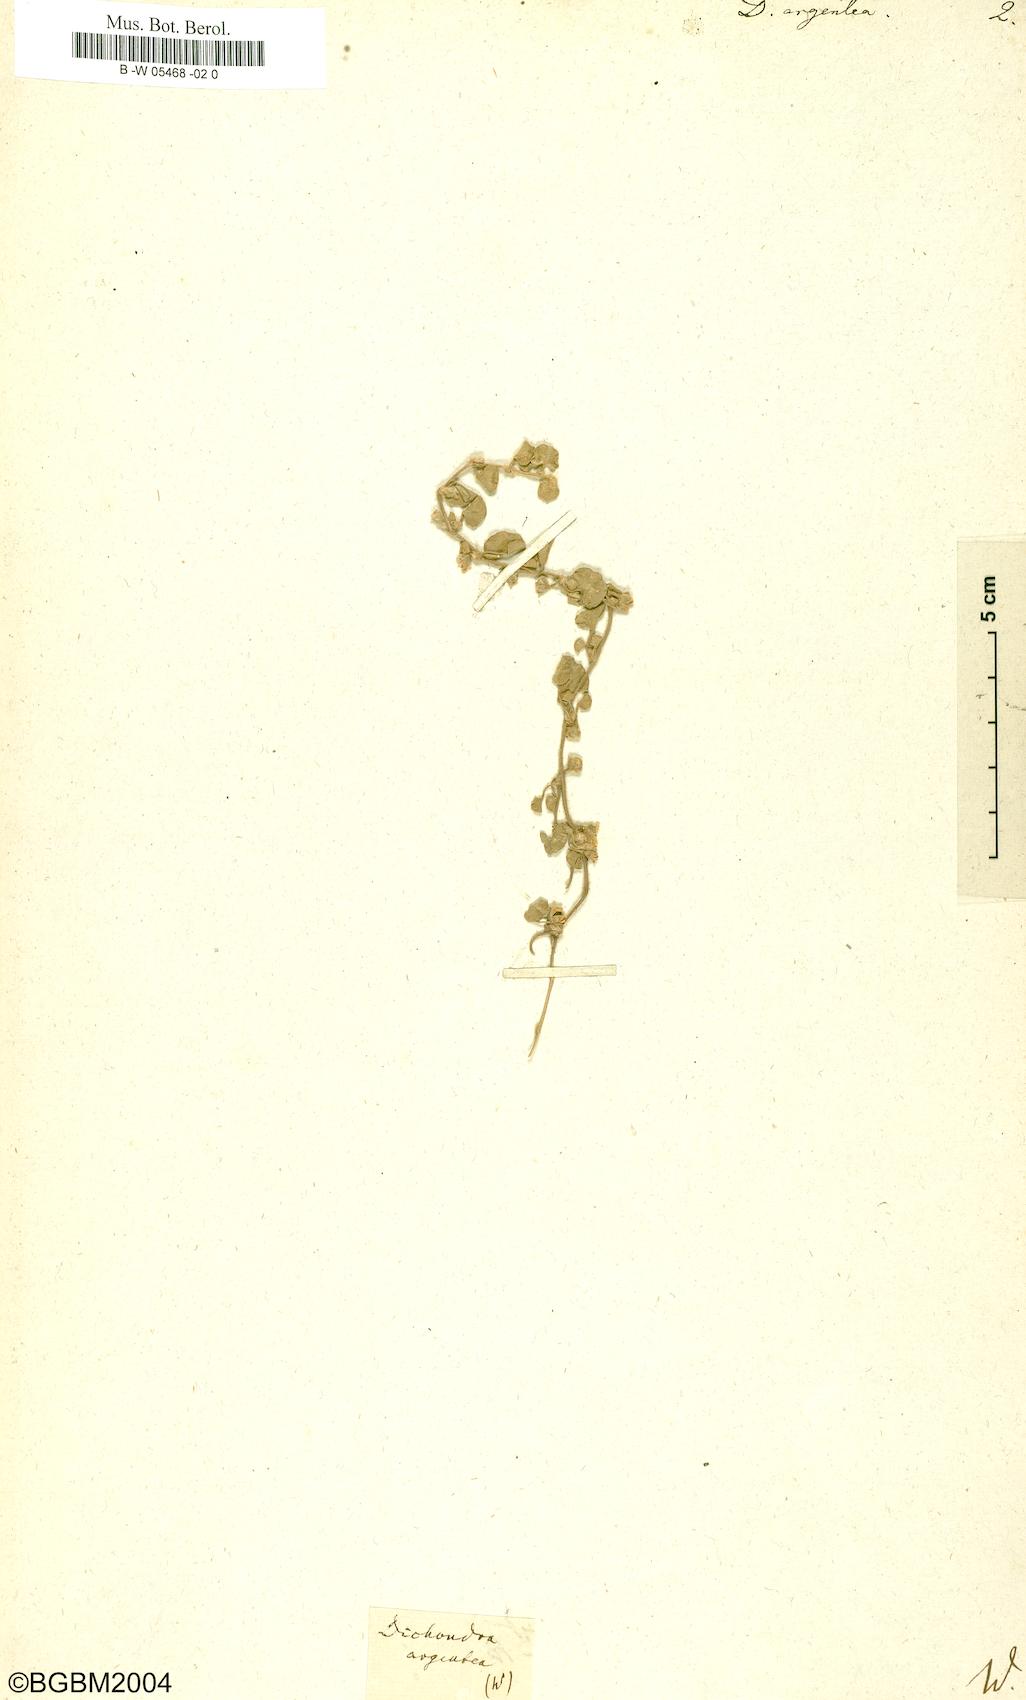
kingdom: Plantae
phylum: Tracheophyta
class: Magnoliopsida
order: Solanales
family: Convolvulaceae
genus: Dichondra
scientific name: Dichondra argentea
